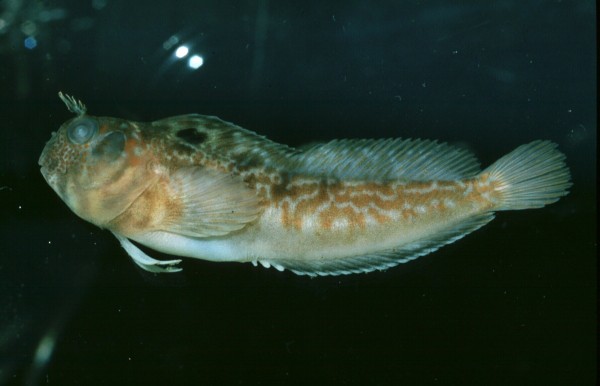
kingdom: Animalia
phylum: Chordata
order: Perciformes
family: Blenniidae
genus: Chalaroderma
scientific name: Chalaroderma ocellata
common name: Two-eyed blenny
